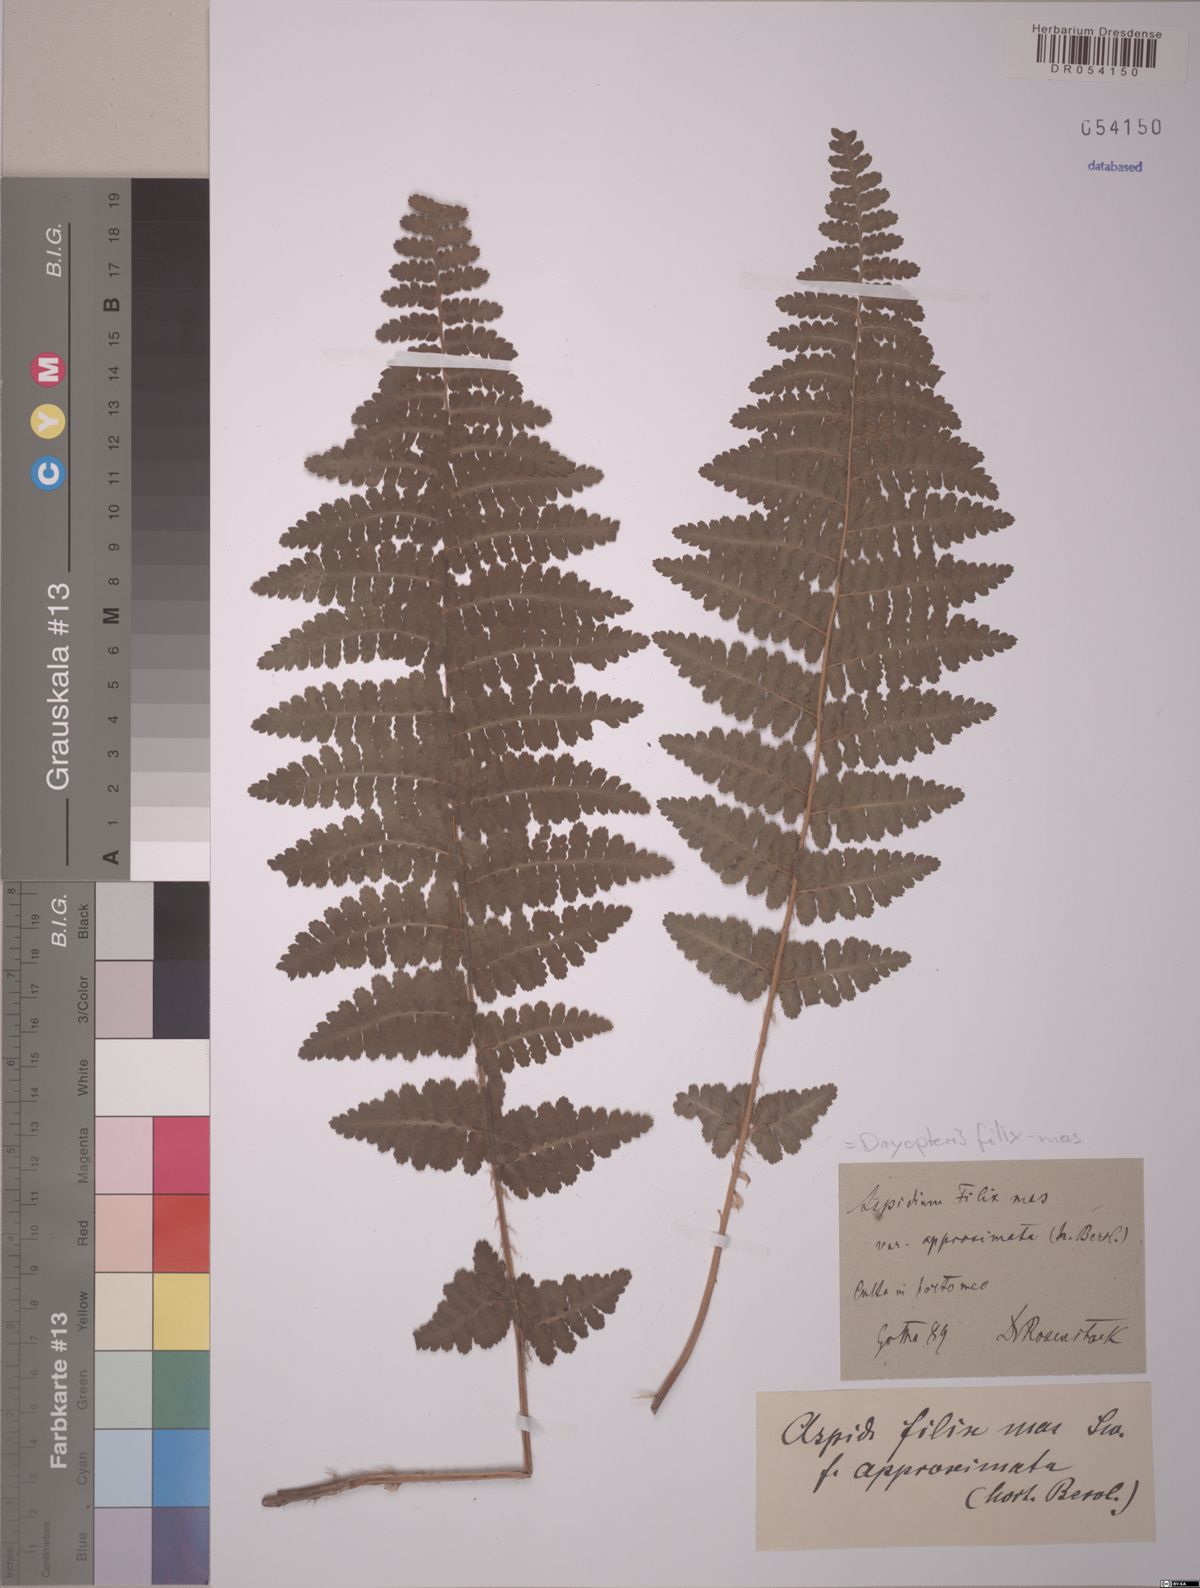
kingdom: Plantae
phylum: Tracheophyta
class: Polypodiopsida
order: Polypodiales
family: Dryopteridaceae
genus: Dryopteris
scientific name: Dryopteris filix-mas
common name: Male fern
